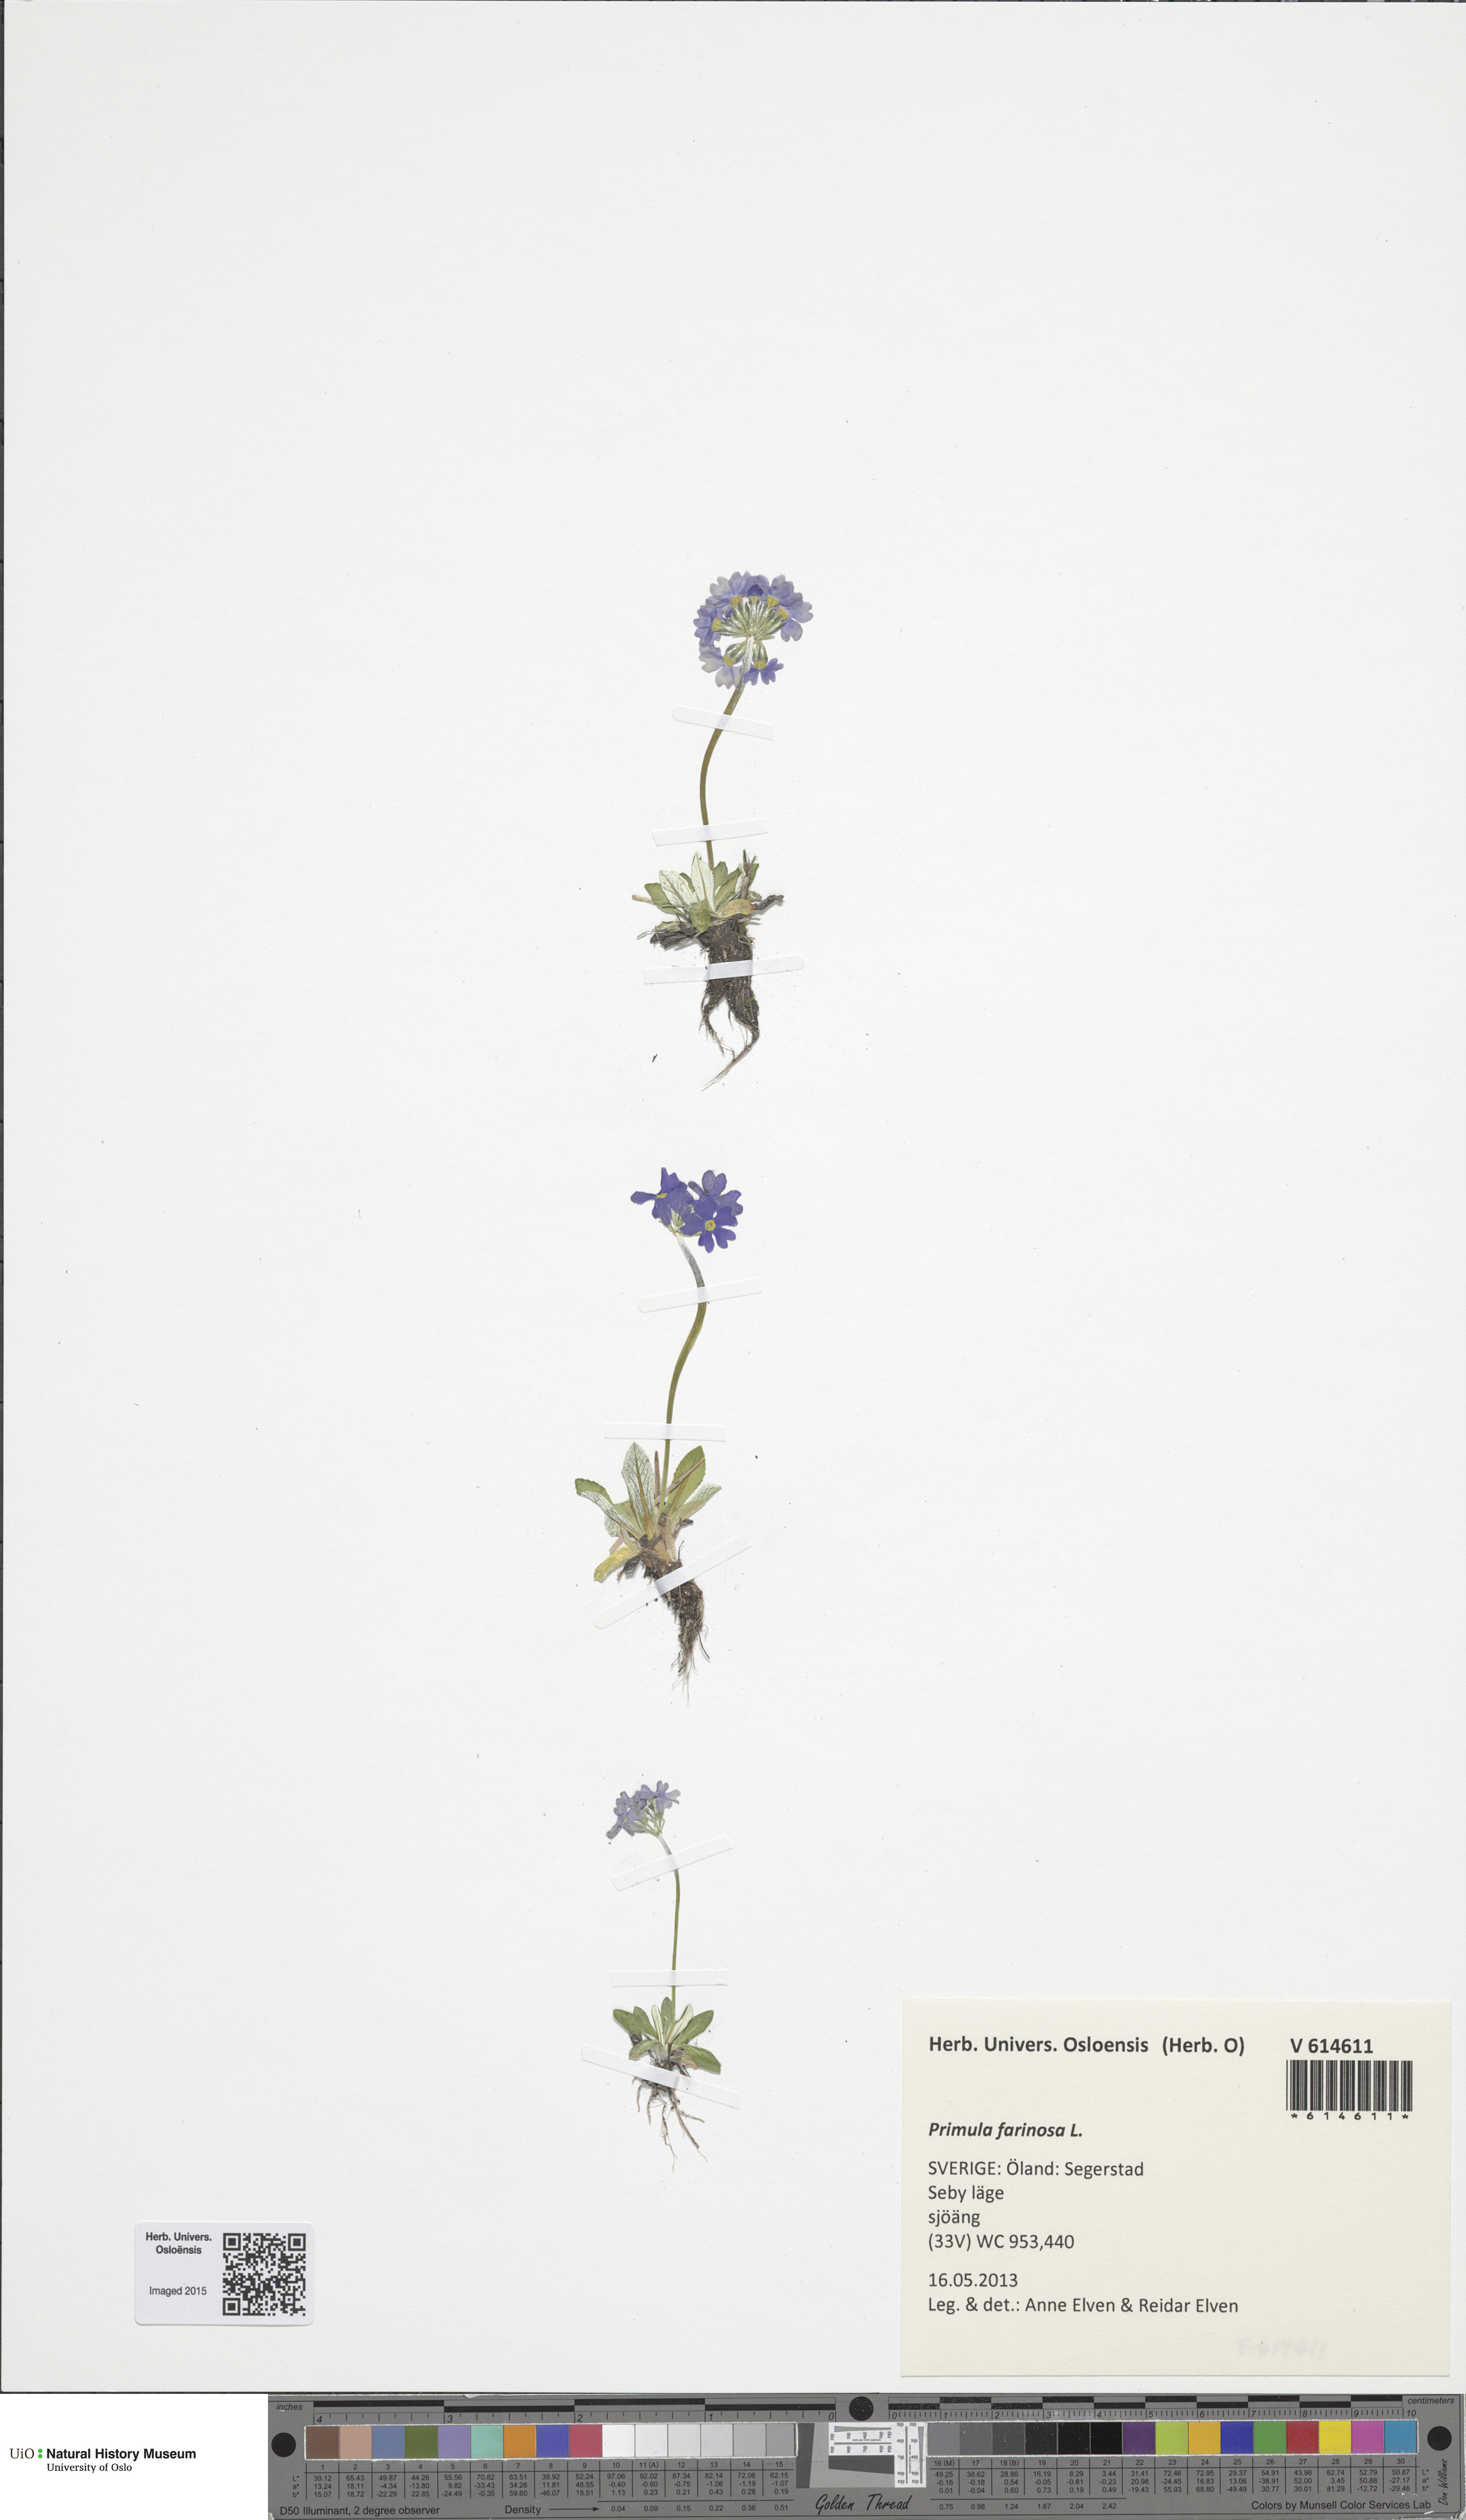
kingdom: Plantae
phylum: Tracheophyta
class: Magnoliopsida
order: Ericales
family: Primulaceae
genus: Primula
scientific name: Primula farinosa
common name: Bird's-eye primrose
